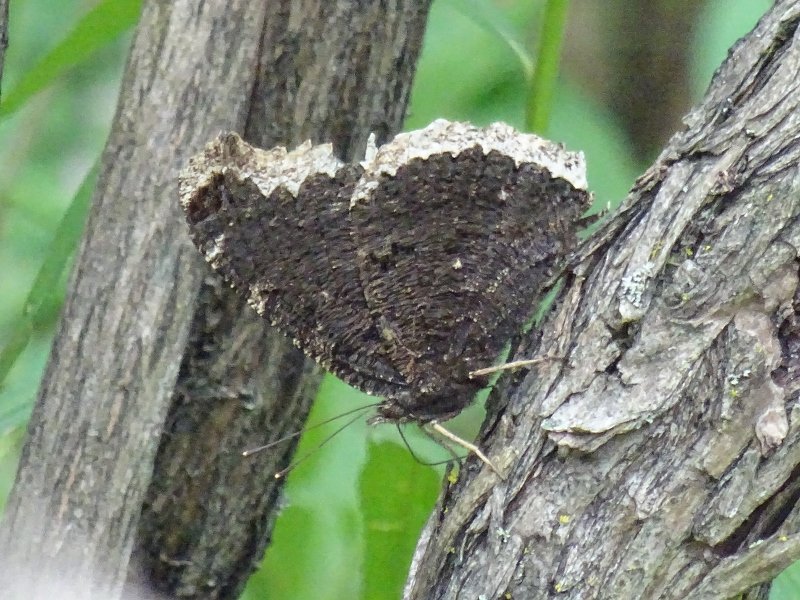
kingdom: Animalia
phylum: Arthropoda
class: Insecta
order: Lepidoptera
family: Nymphalidae
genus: Nymphalis
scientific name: Nymphalis antiopa
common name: Mourning Cloak
